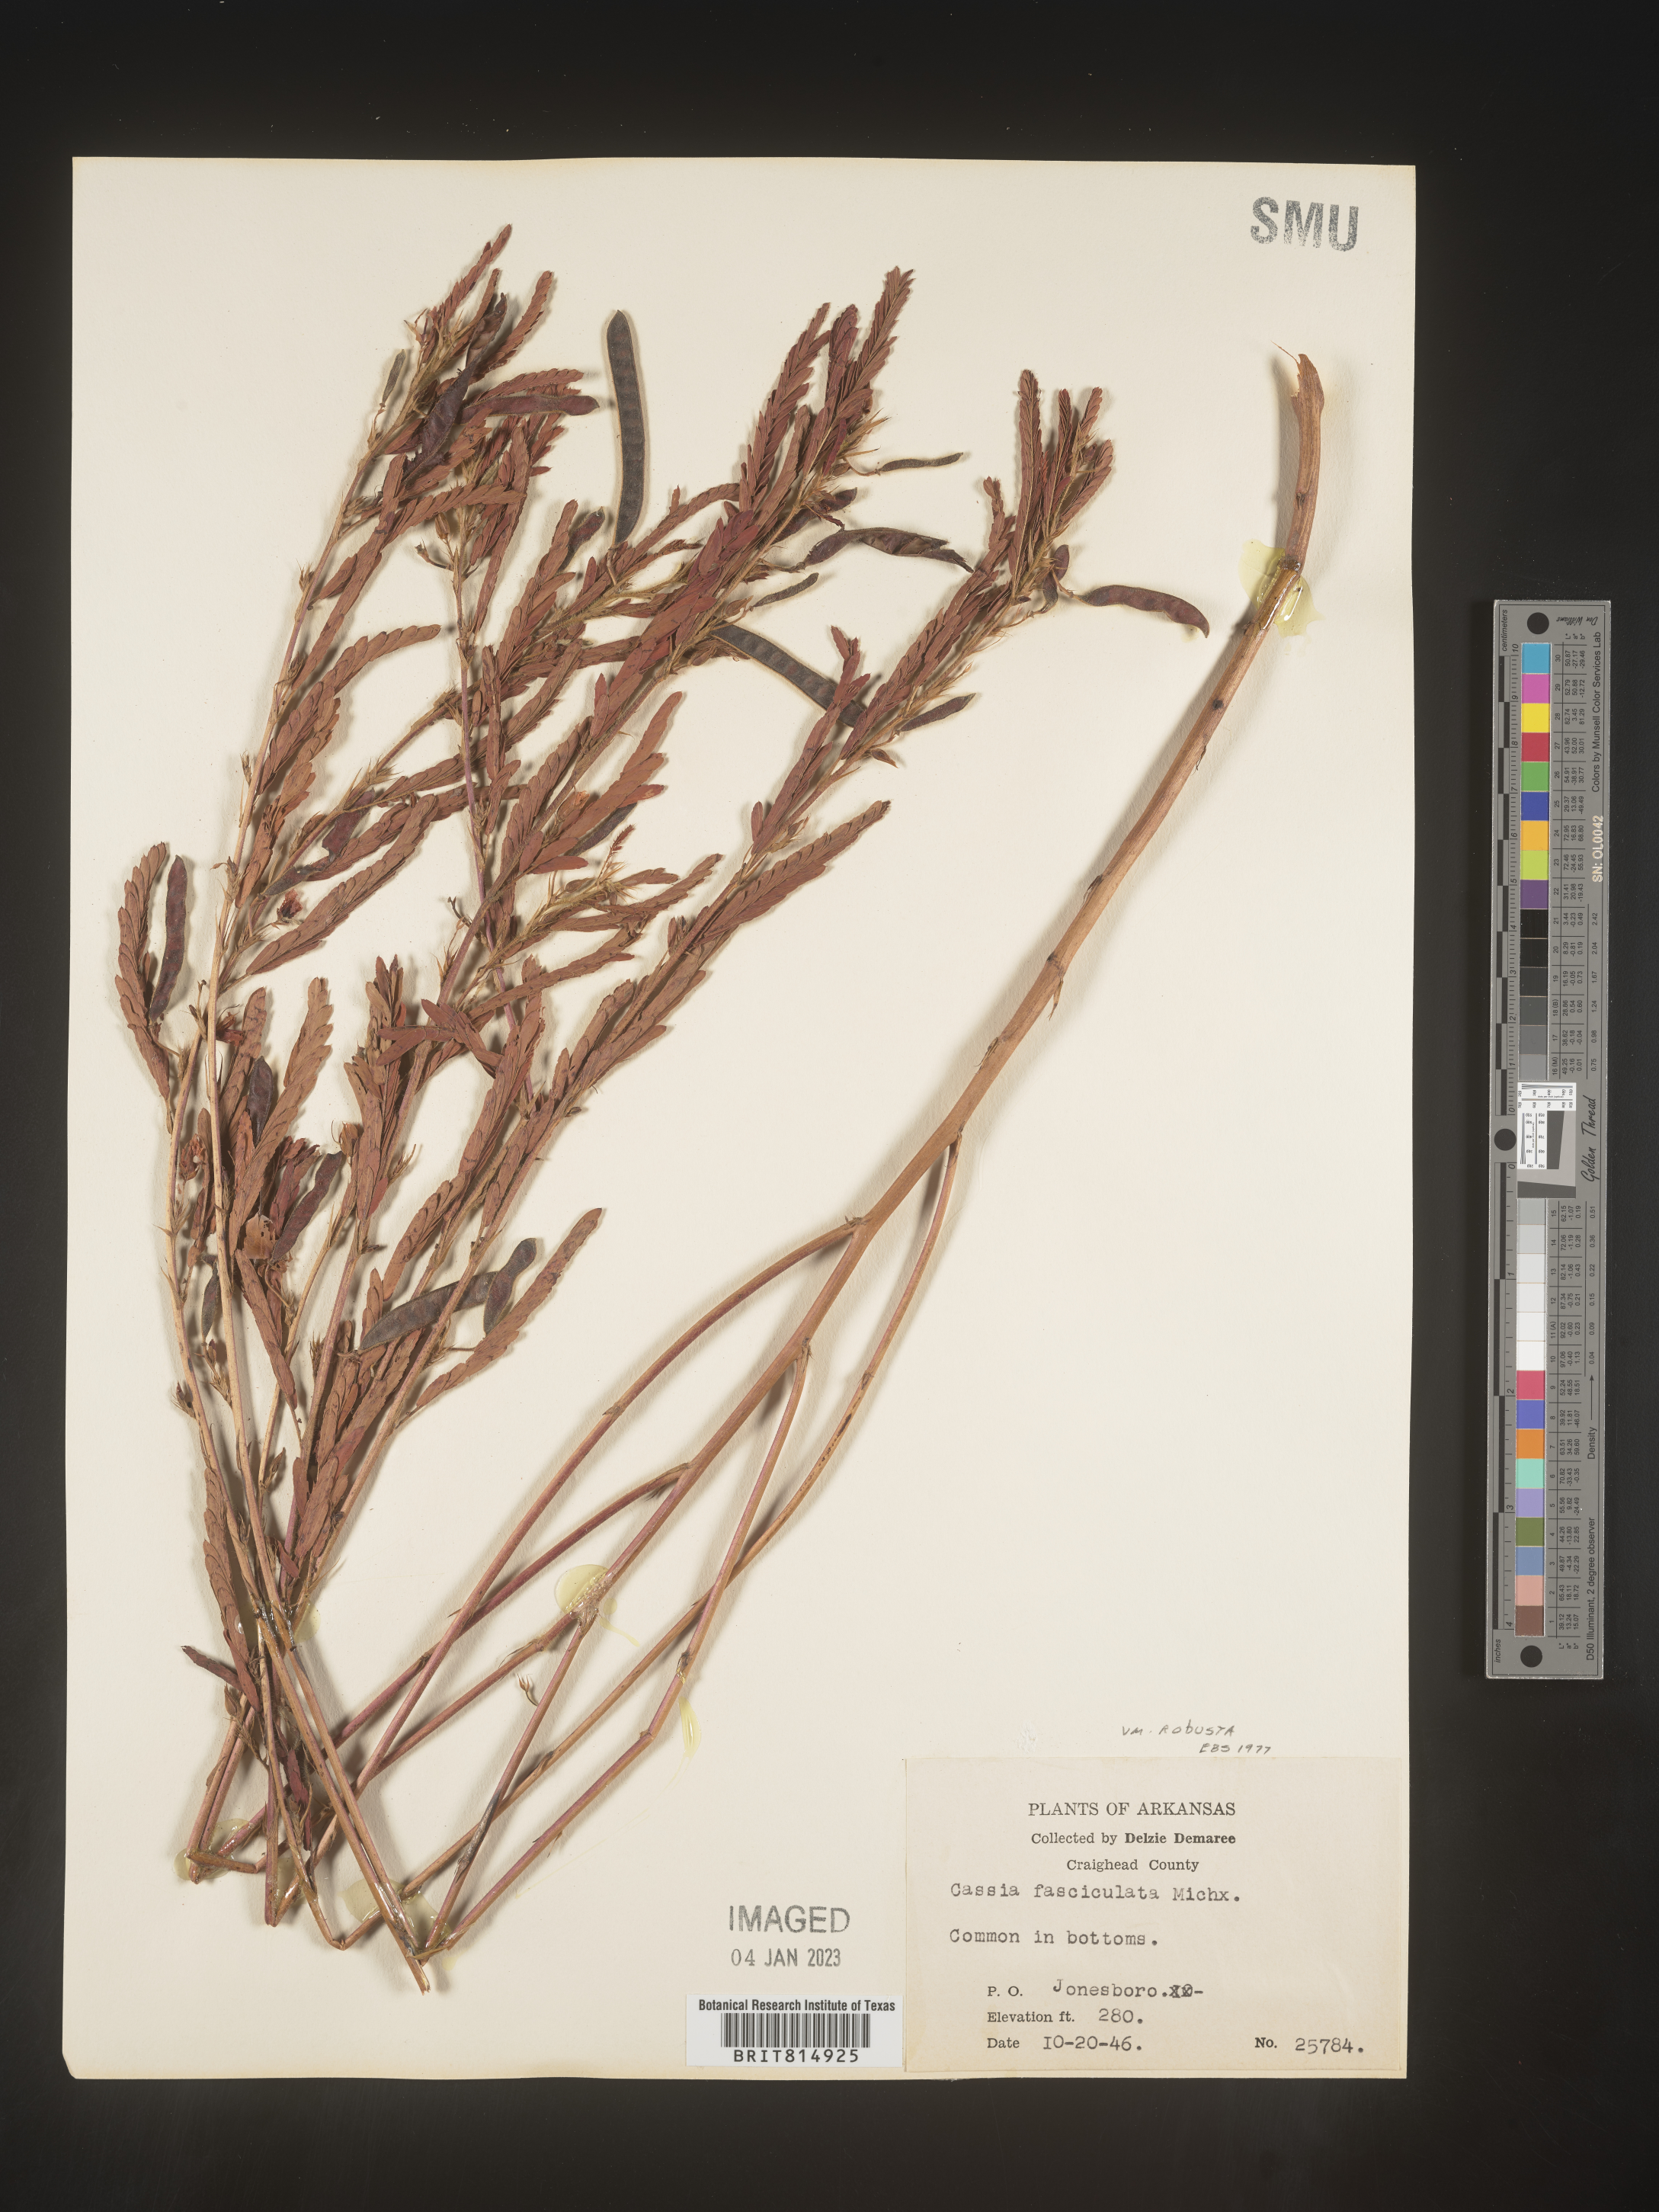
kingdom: Plantae
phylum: Tracheophyta
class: Magnoliopsida
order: Fabales
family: Fabaceae
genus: Chamaecrista
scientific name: Chamaecrista fasciculata
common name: Golden cassia
